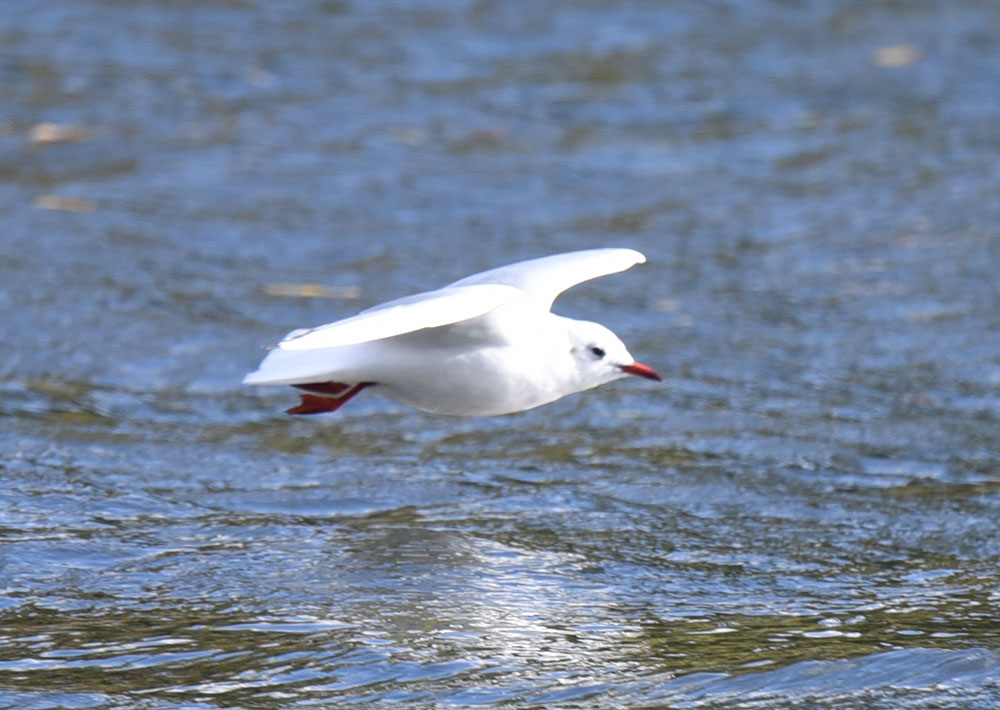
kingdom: Animalia
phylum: Chordata
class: Aves
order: Charadriiformes
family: Laridae
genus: Chroicocephalus
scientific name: Chroicocephalus ridibundus
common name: Black-headed gull
